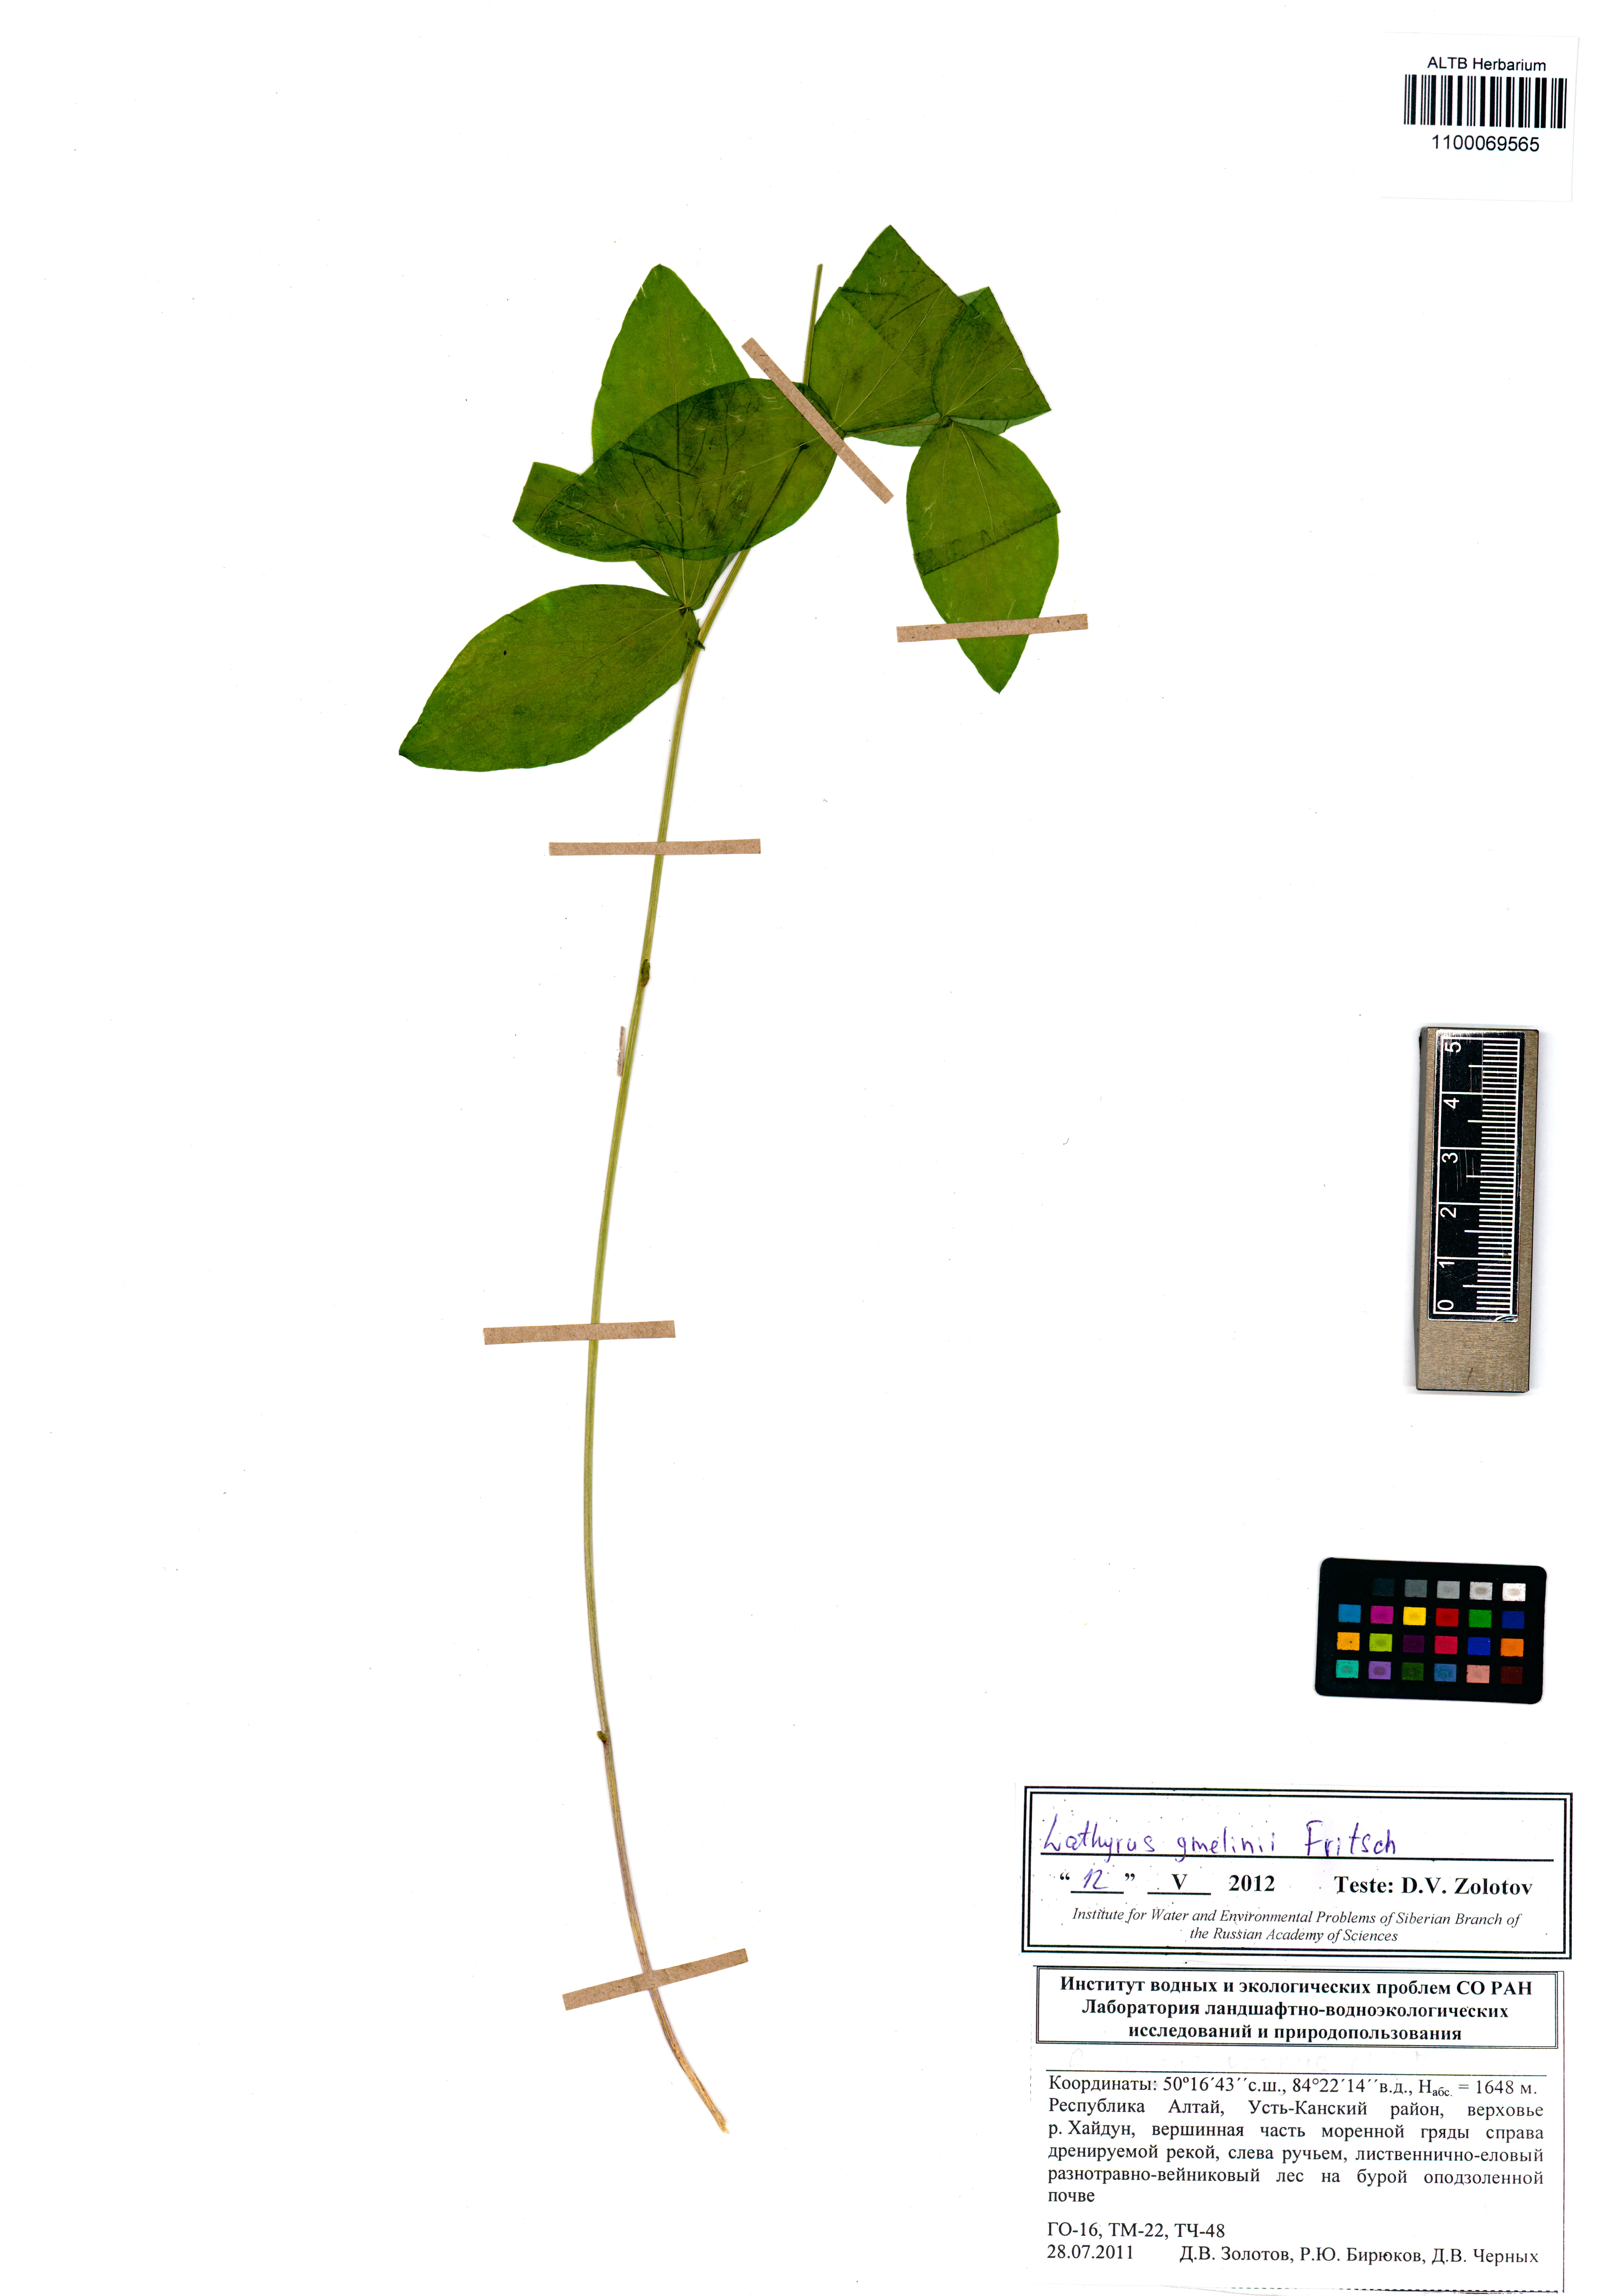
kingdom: Plantae
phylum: Tracheophyta
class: Magnoliopsida
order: Fabales
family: Fabaceae
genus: Lathyrus
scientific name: Lathyrus gmelinii
